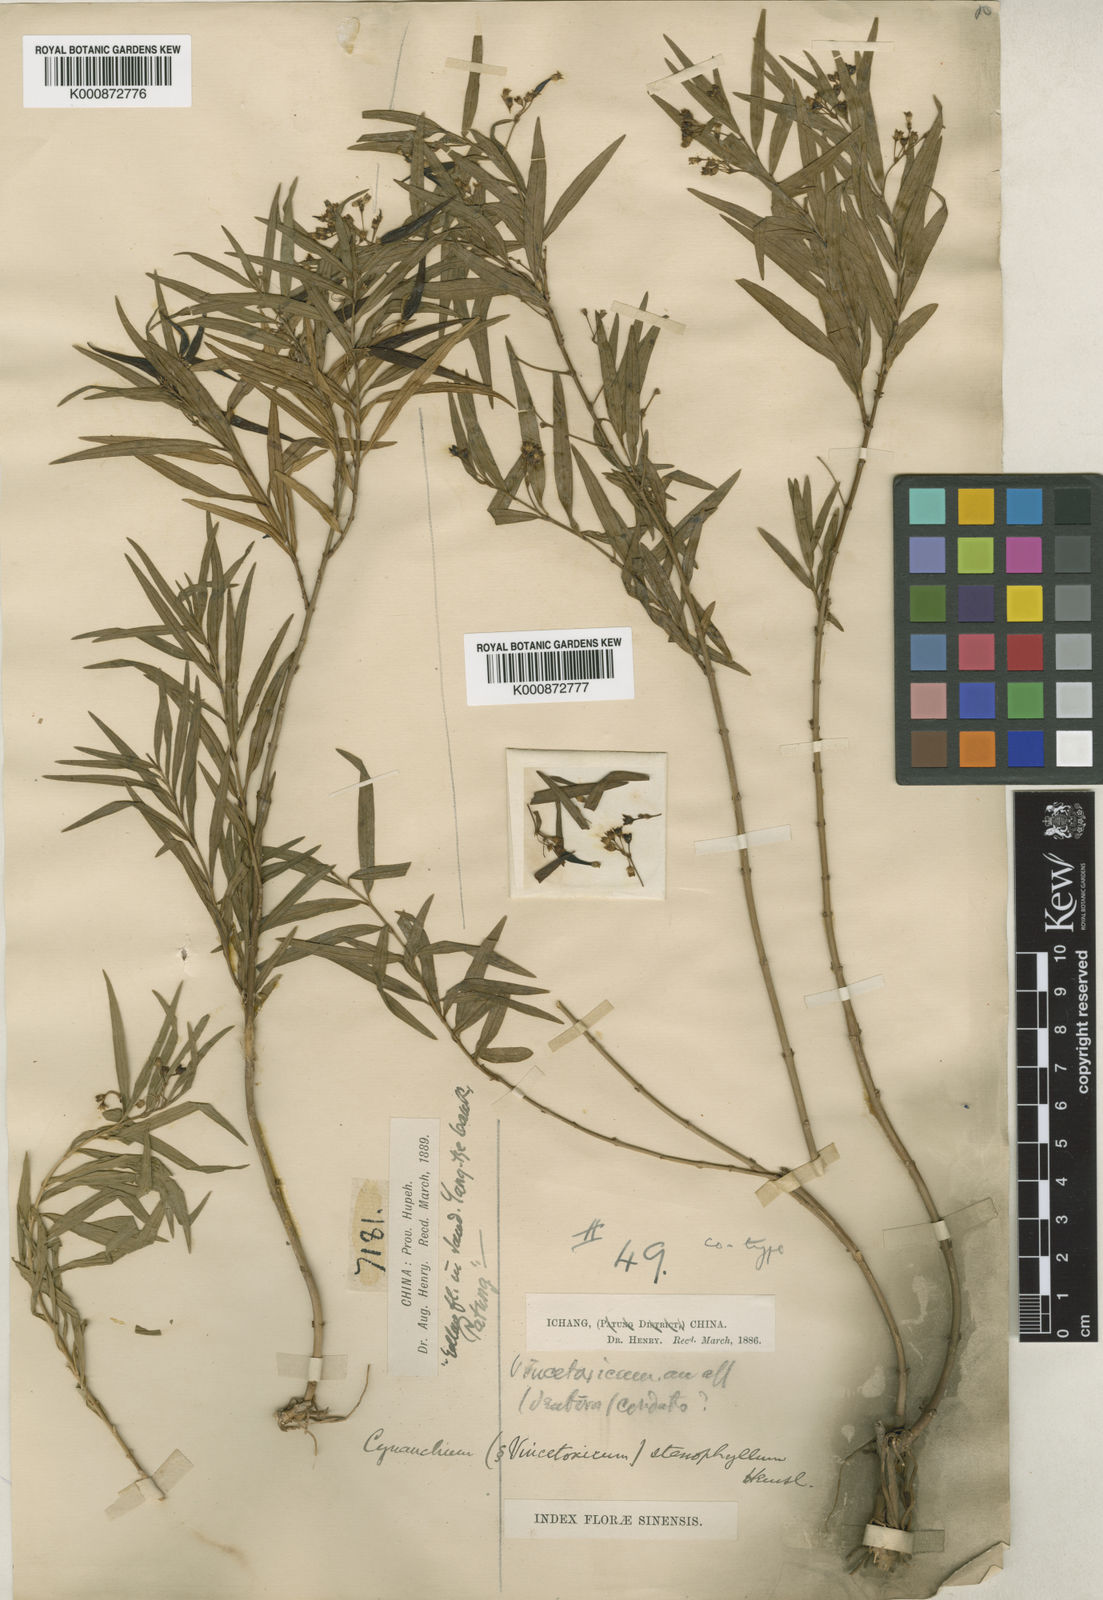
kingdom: Plantae
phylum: Tracheophyta
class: Magnoliopsida
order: Gentianales
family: Apocynaceae
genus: Vincetoxicum
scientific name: Vincetoxicum stenophyllum
